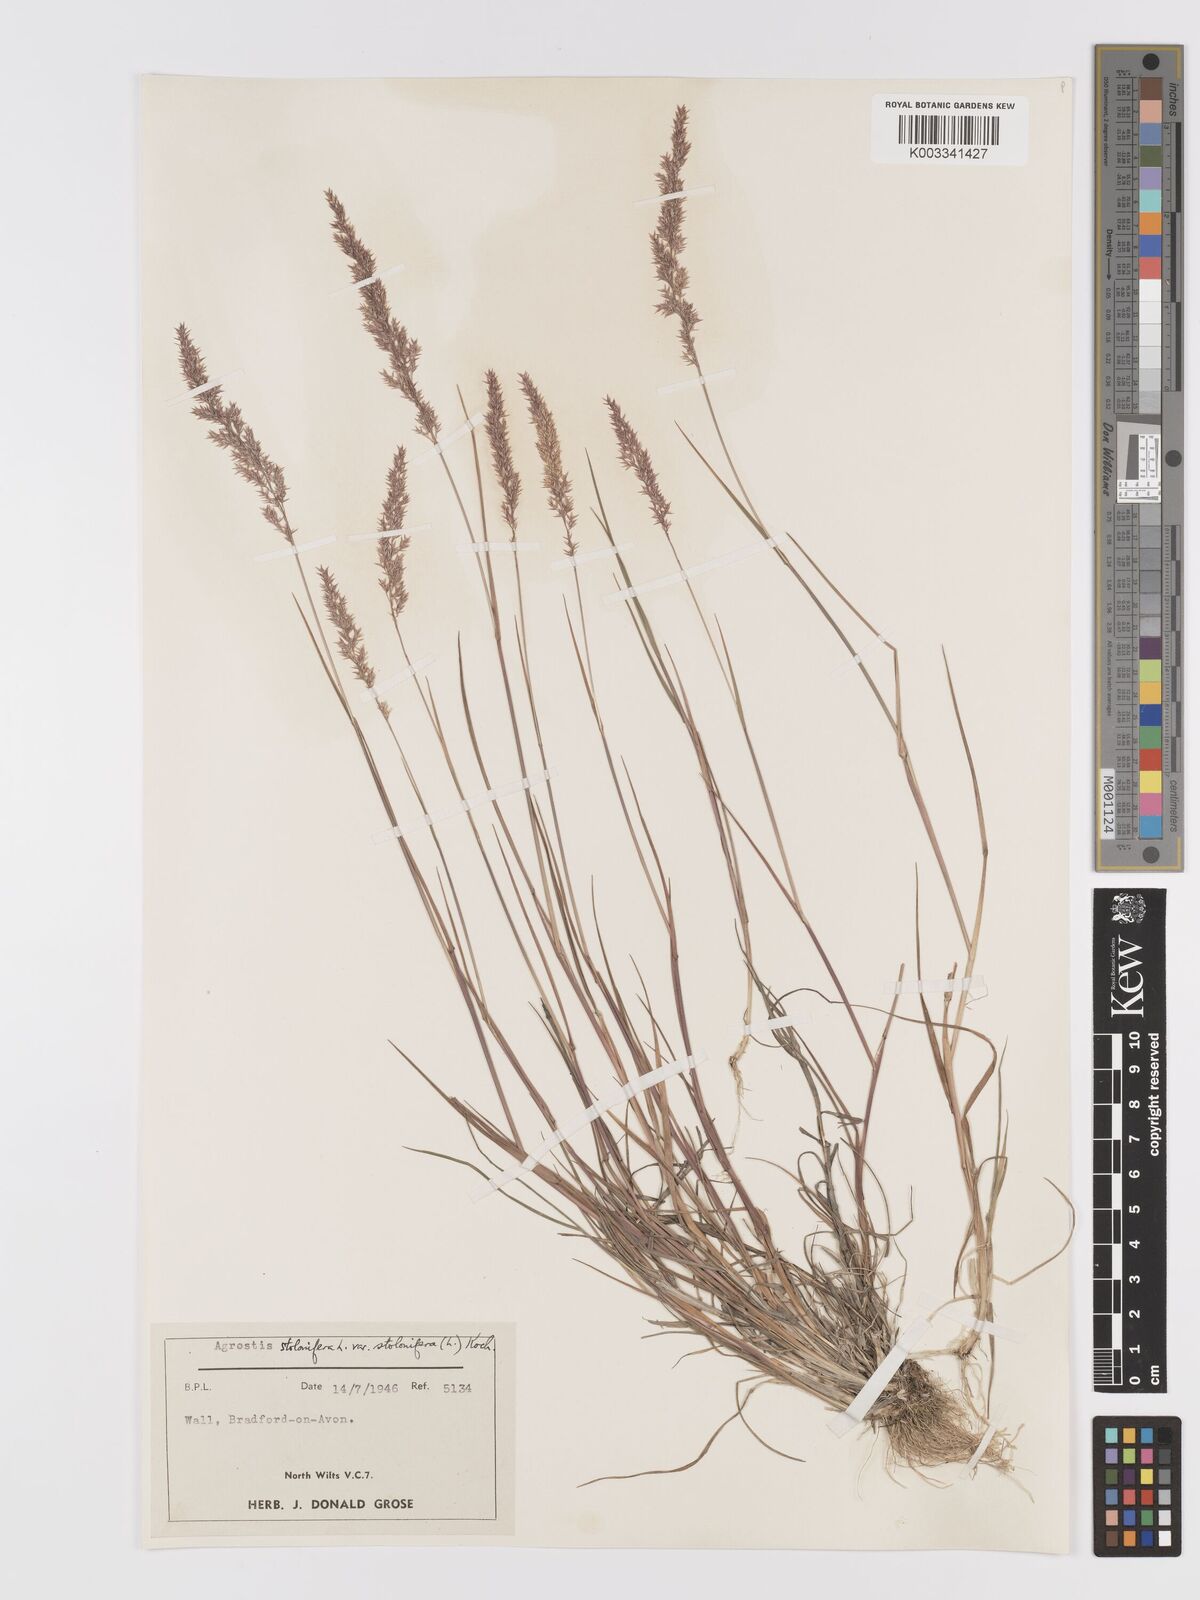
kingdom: Plantae
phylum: Tracheophyta
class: Liliopsida
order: Poales
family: Poaceae
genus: Agrostis
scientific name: Agrostis stolonifera
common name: Creeping bentgrass
